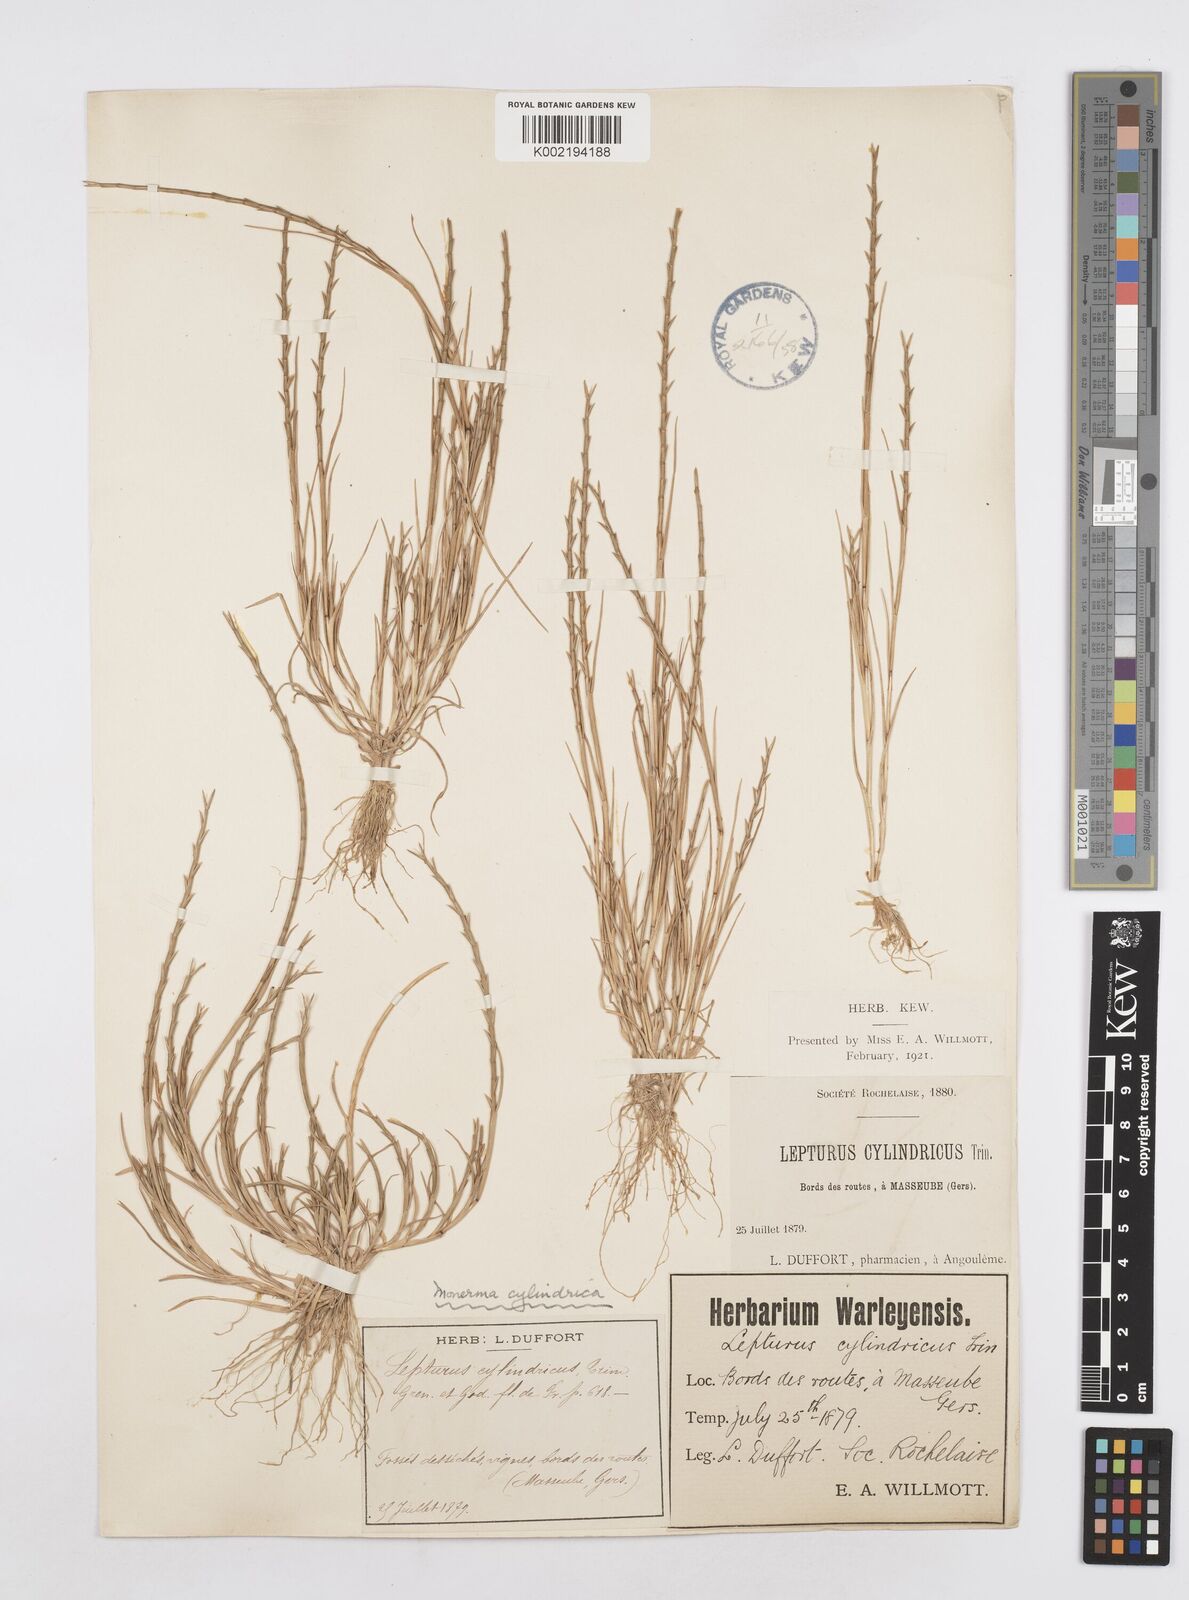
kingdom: Plantae
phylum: Tracheophyta
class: Liliopsida
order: Poales
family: Poaceae
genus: Parapholis
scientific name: Parapholis cylindrica
